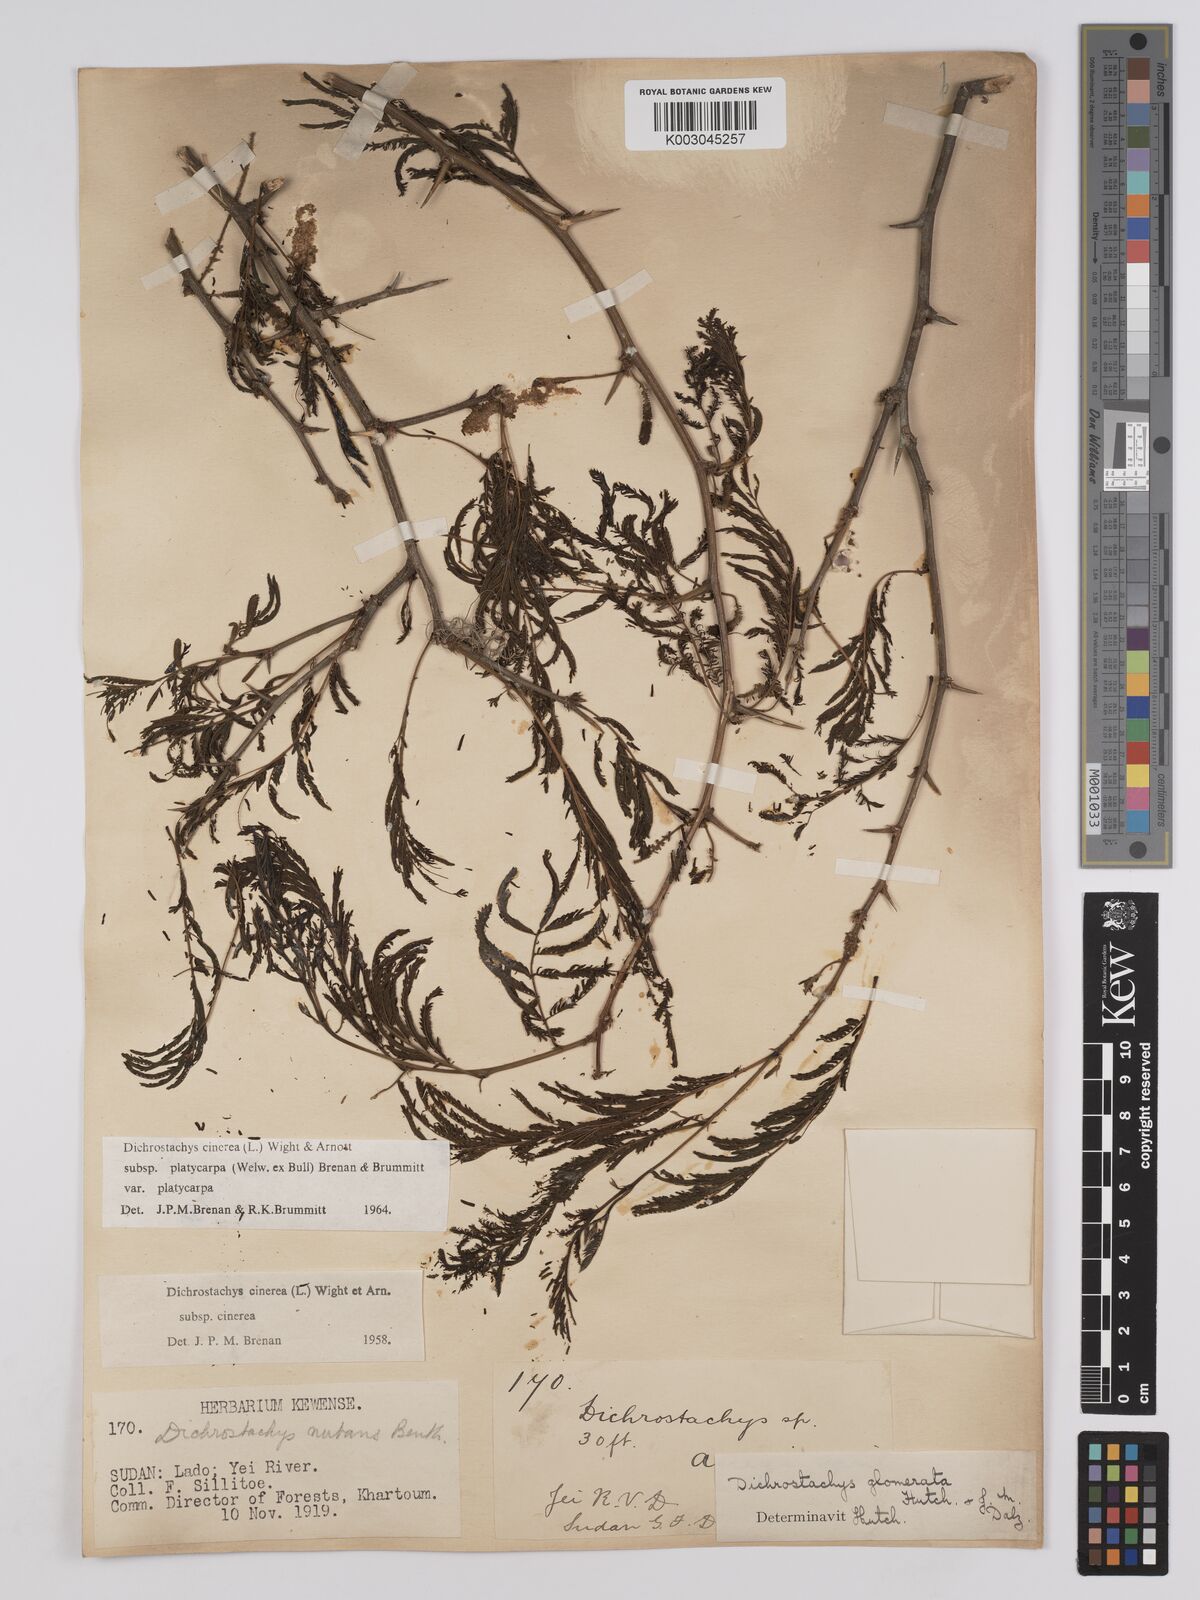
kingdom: Plantae
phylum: Tracheophyta
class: Magnoliopsida
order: Fabales
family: Fabaceae
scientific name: Fabaceae
